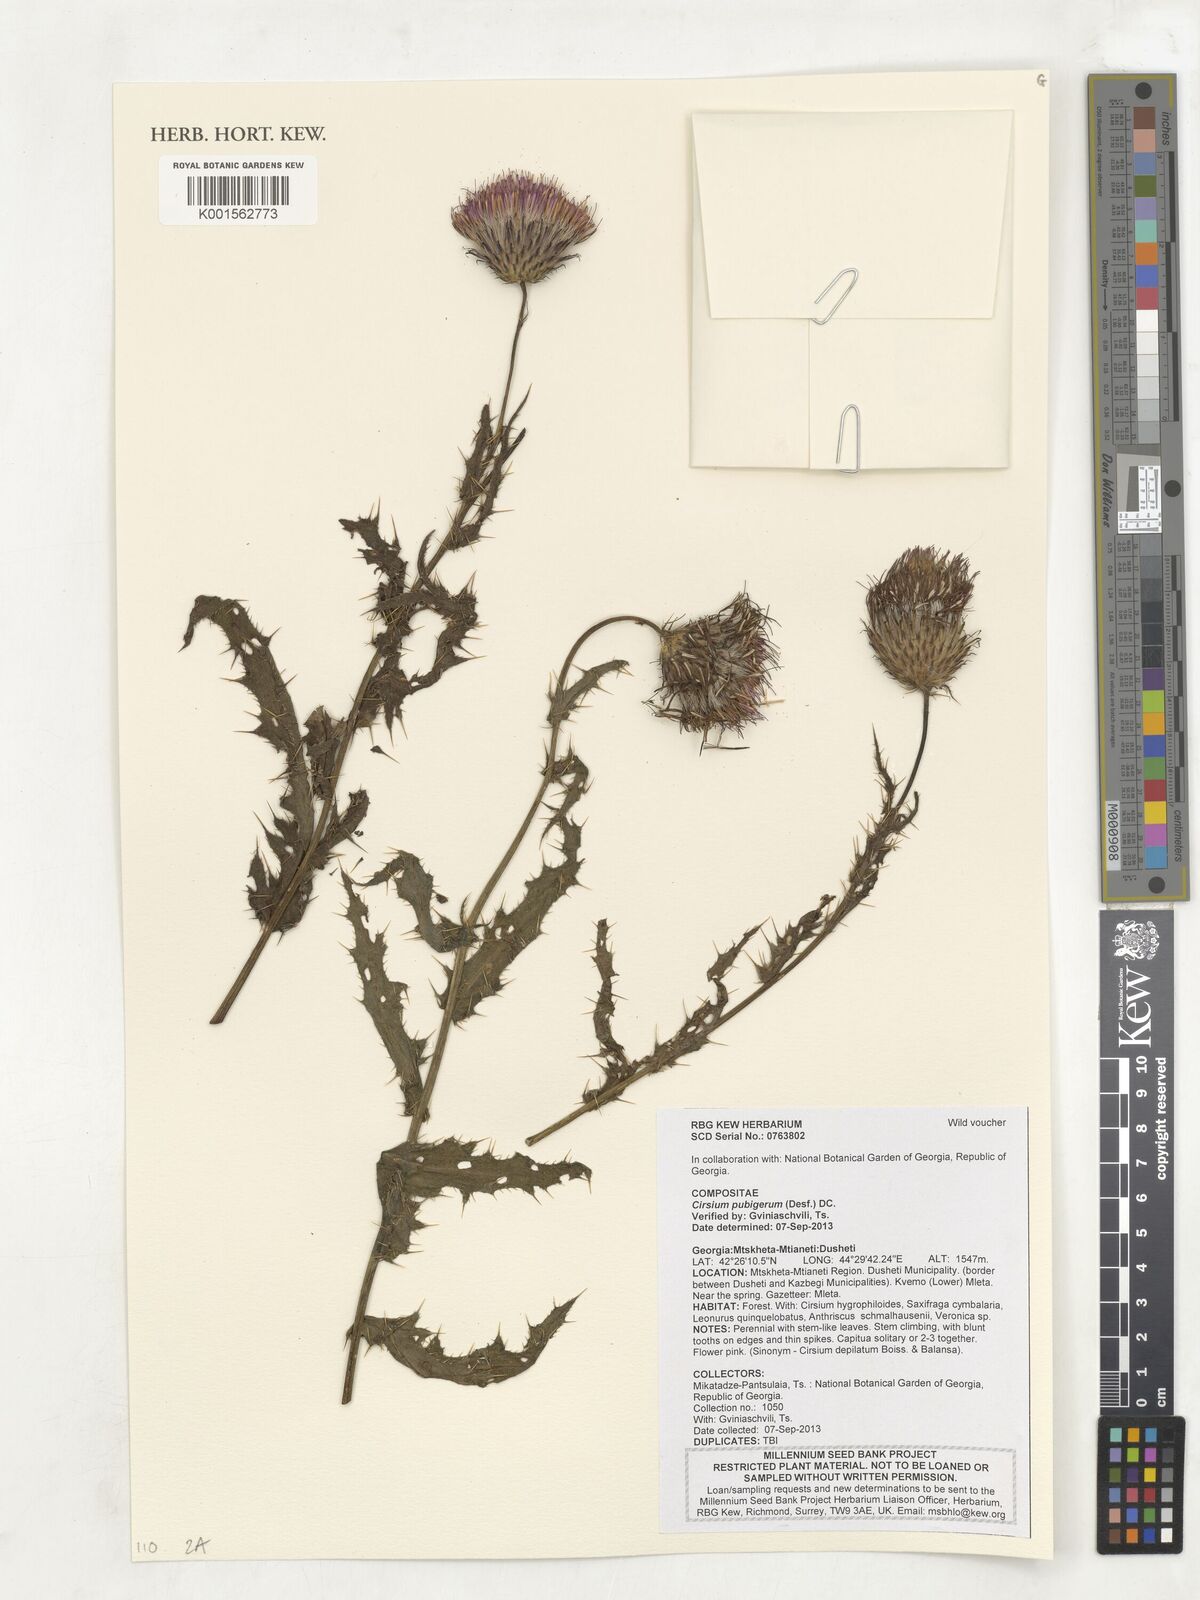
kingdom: Plantae
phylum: Tracheophyta
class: Magnoliopsida
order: Asterales
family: Asteraceae
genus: Cirsium
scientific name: Cirsium pubigerum
